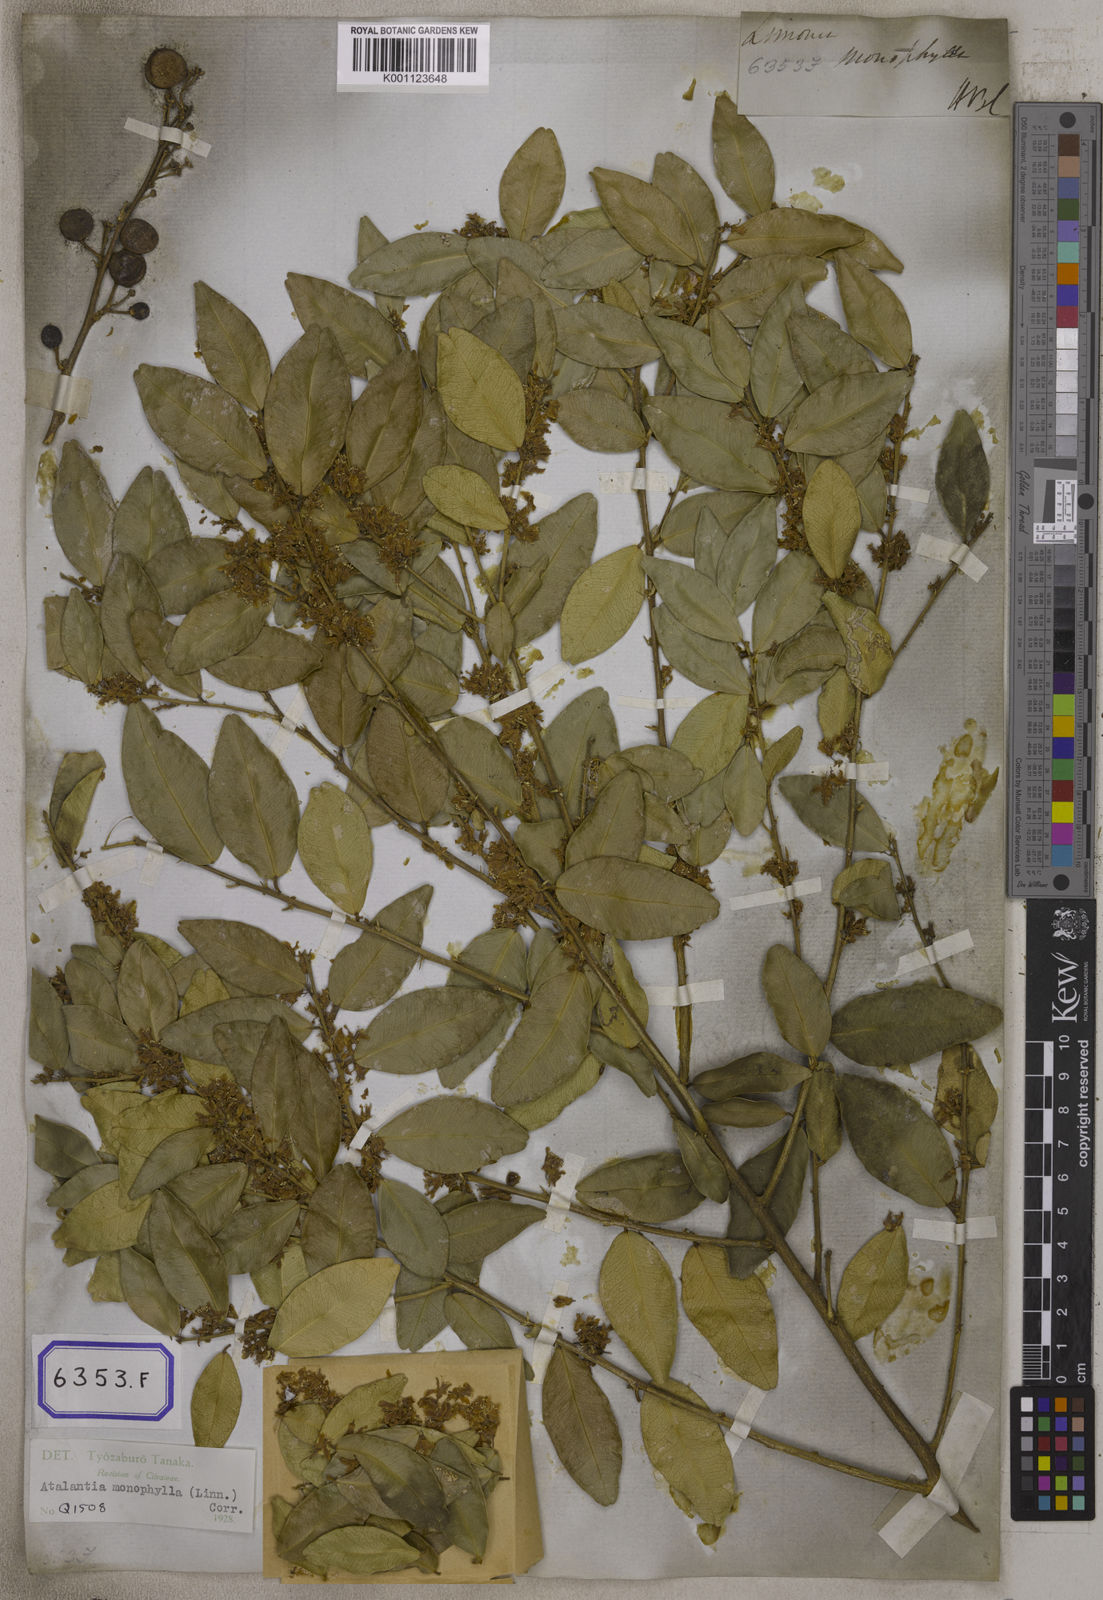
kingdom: Plantae
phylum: Tracheophyta
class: Magnoliopsida
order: Sapindales
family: Rutaceae
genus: Atalantia
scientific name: Atalantia monophylla
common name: Indian-atalantia
